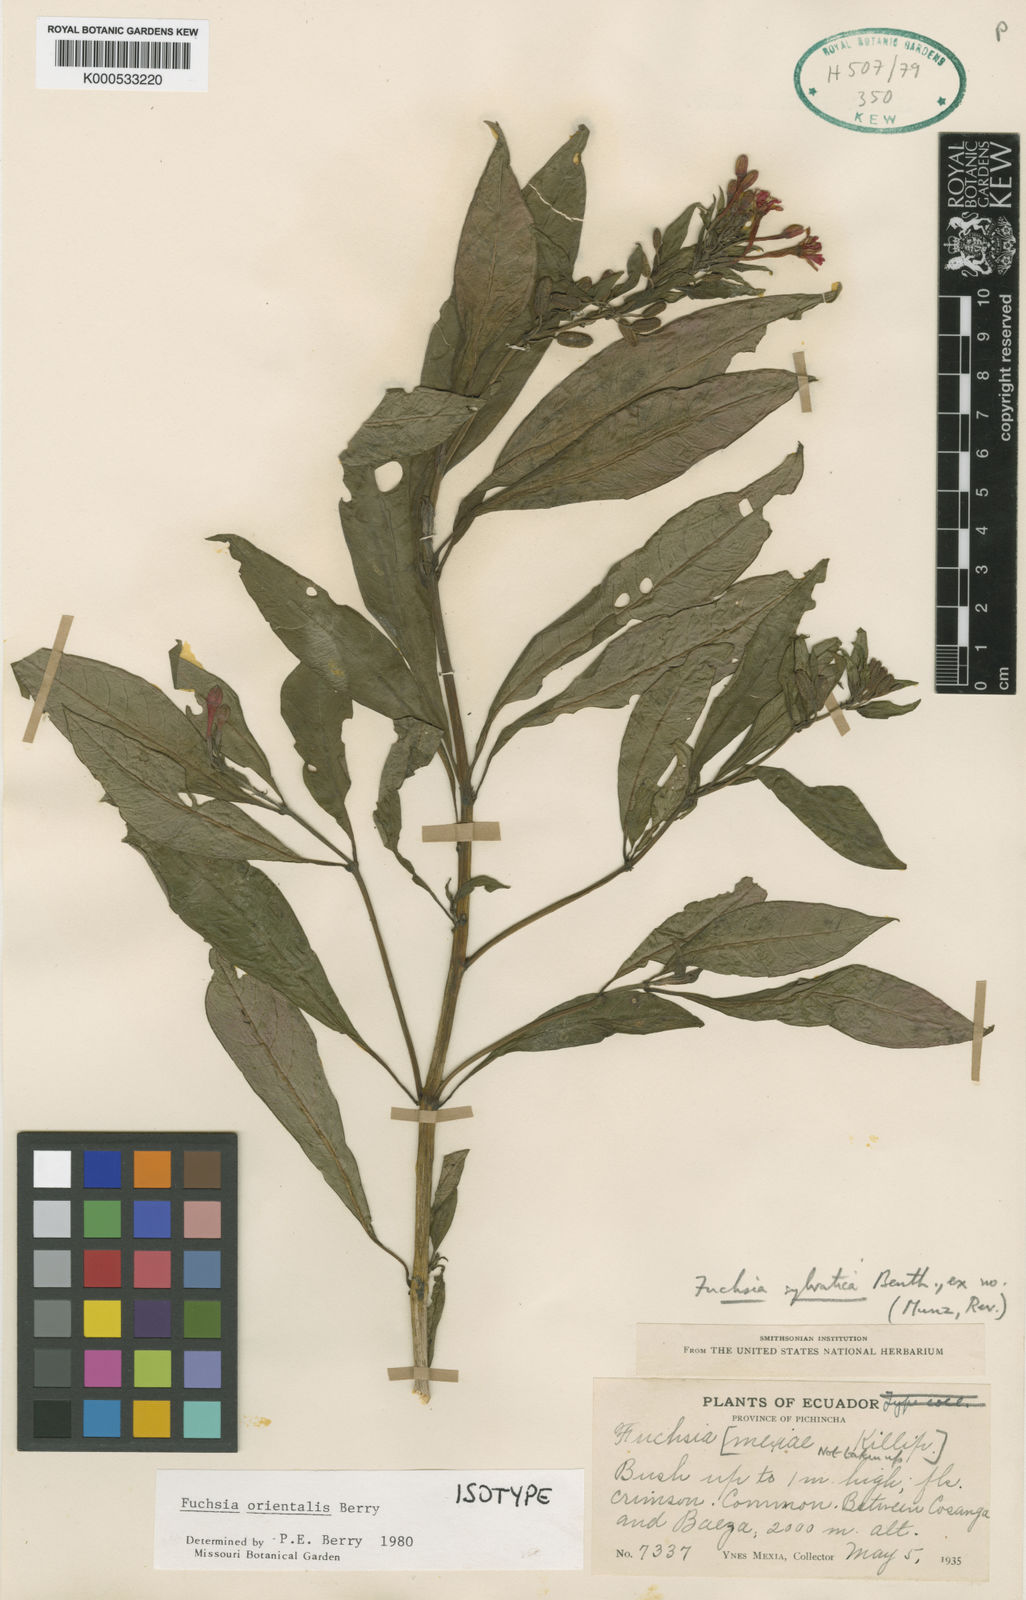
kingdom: Plantae
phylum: Tracheophyta
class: Magnoliopsida
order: Myrtales
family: Onagraceae
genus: Fuchsia
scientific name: Fuchsia orientalis
